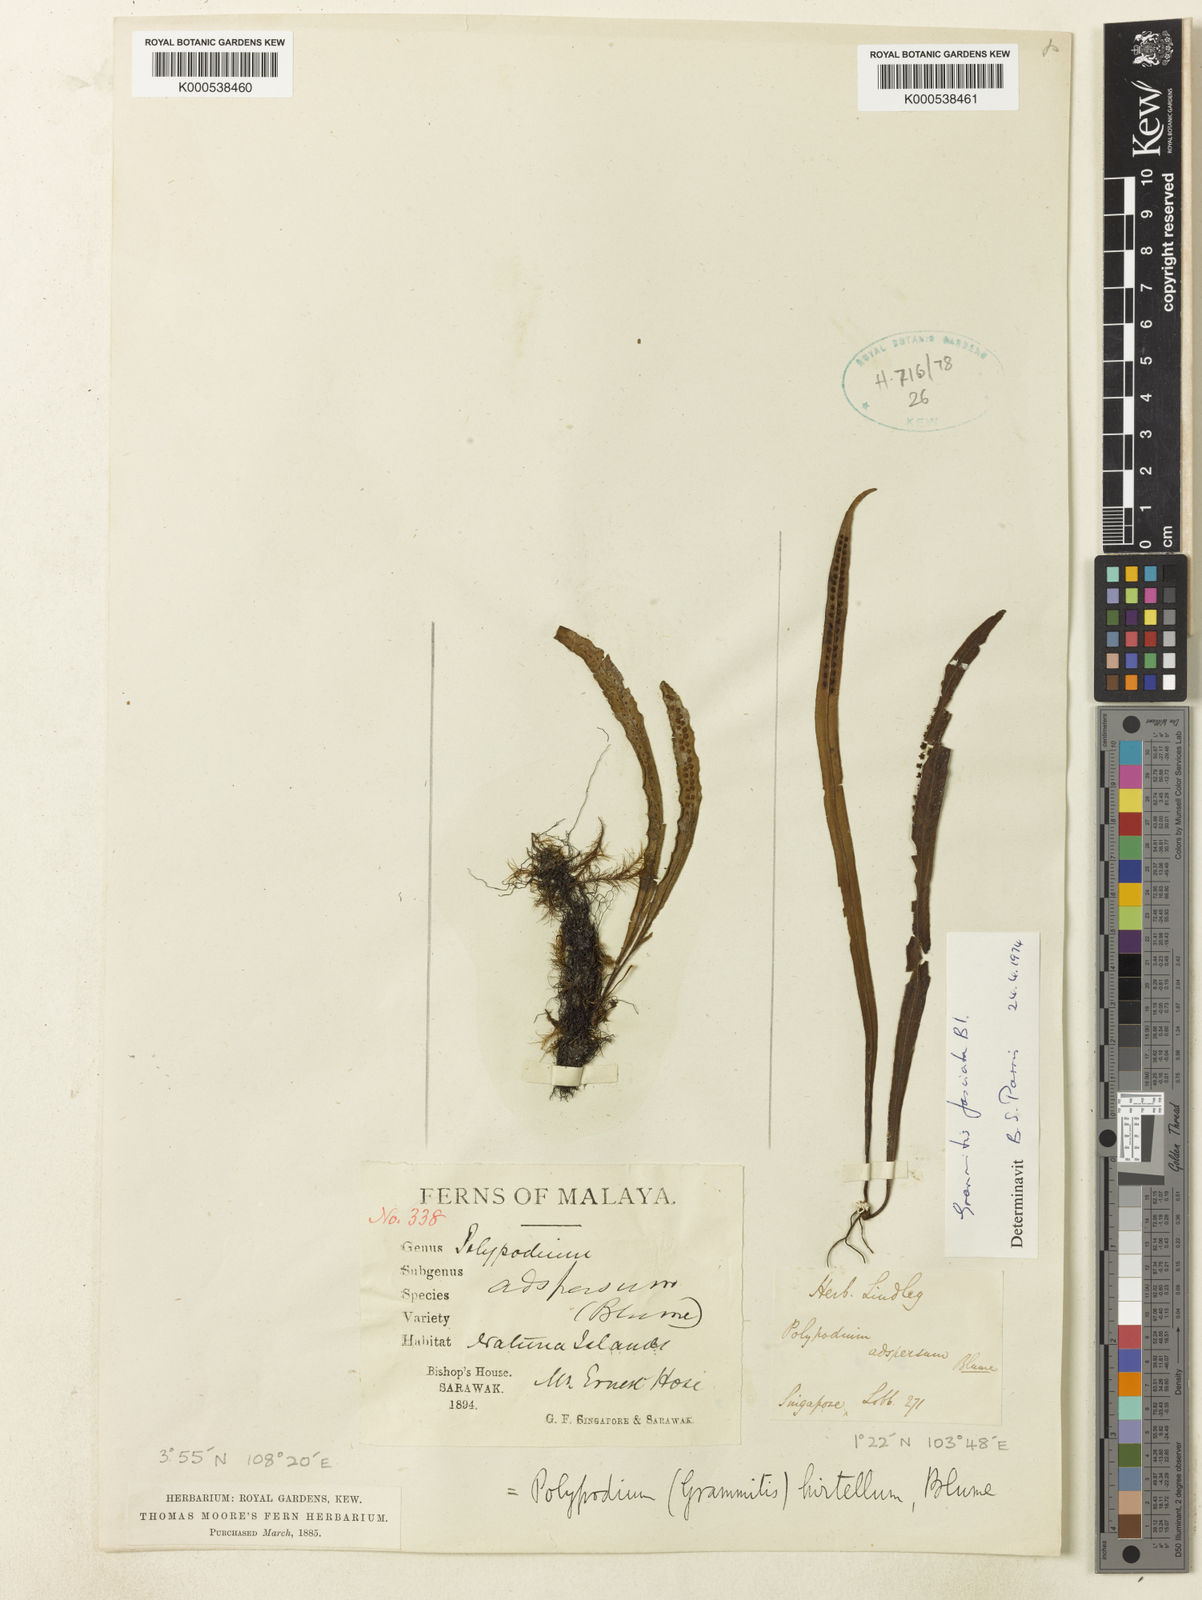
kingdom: Plantae
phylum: Tracheophyta
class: Polypodiopsida
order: Polypodiales
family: Polypodiaceae
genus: Oreogrammitis
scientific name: Oreogrammitis fasciata
